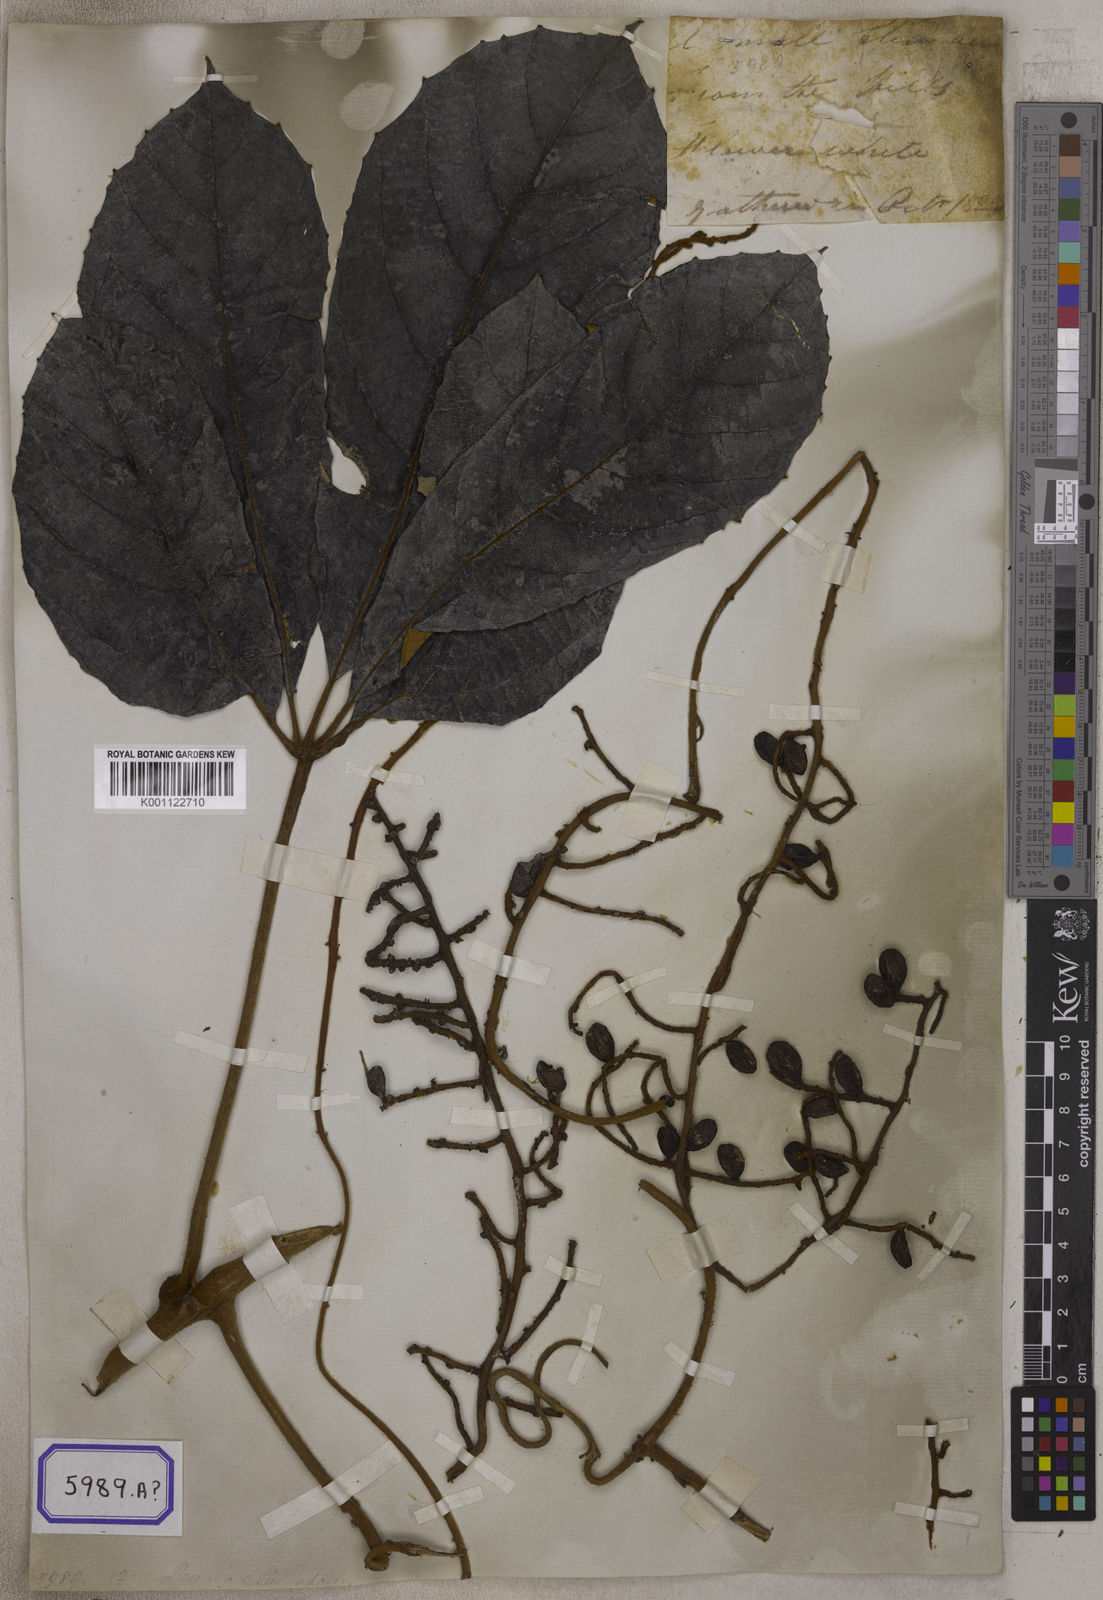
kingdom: Plantae
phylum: Tracheophyta
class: Magnoliopsida
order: Vitales
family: Vitaceae
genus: Ampelocissus
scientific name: Ampelocissus cinnamomea
